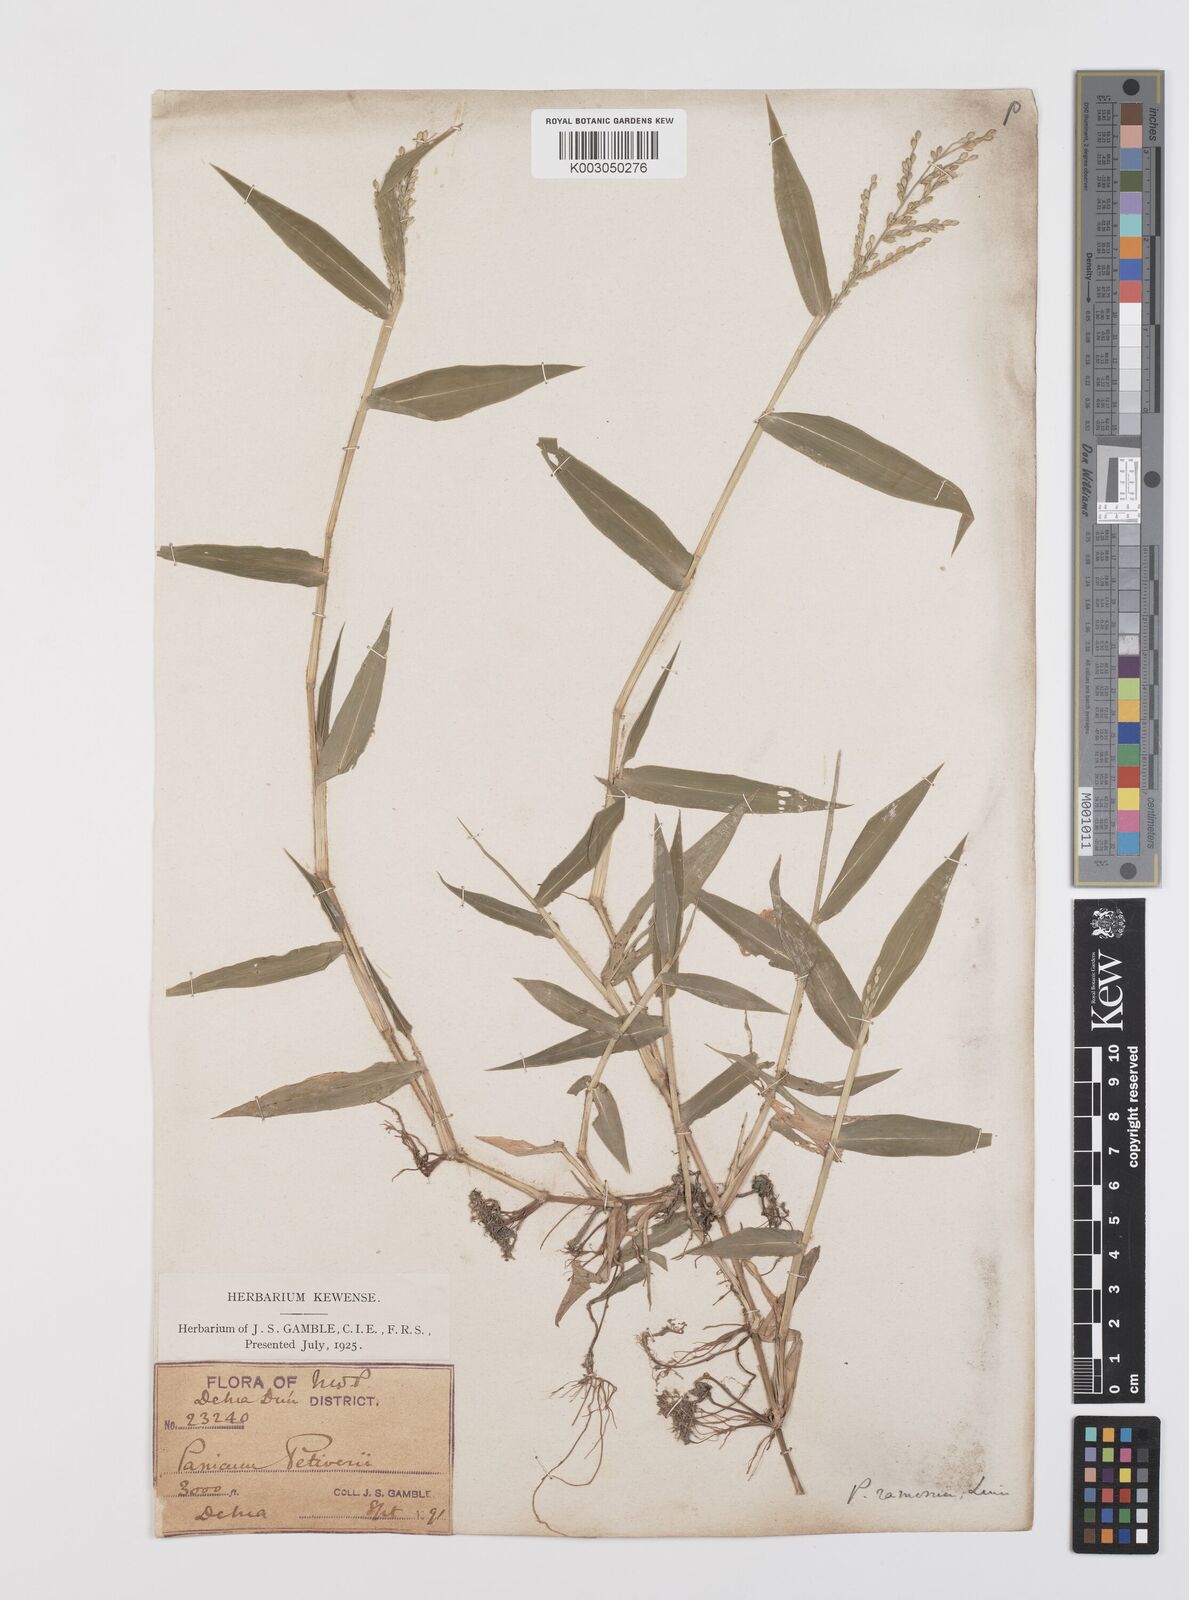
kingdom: Plantae
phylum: Tracheophyta
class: Liliopsida
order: Poales
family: Poaceae
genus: Urochloa
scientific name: Urochloa ramosa
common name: Browntop millet
